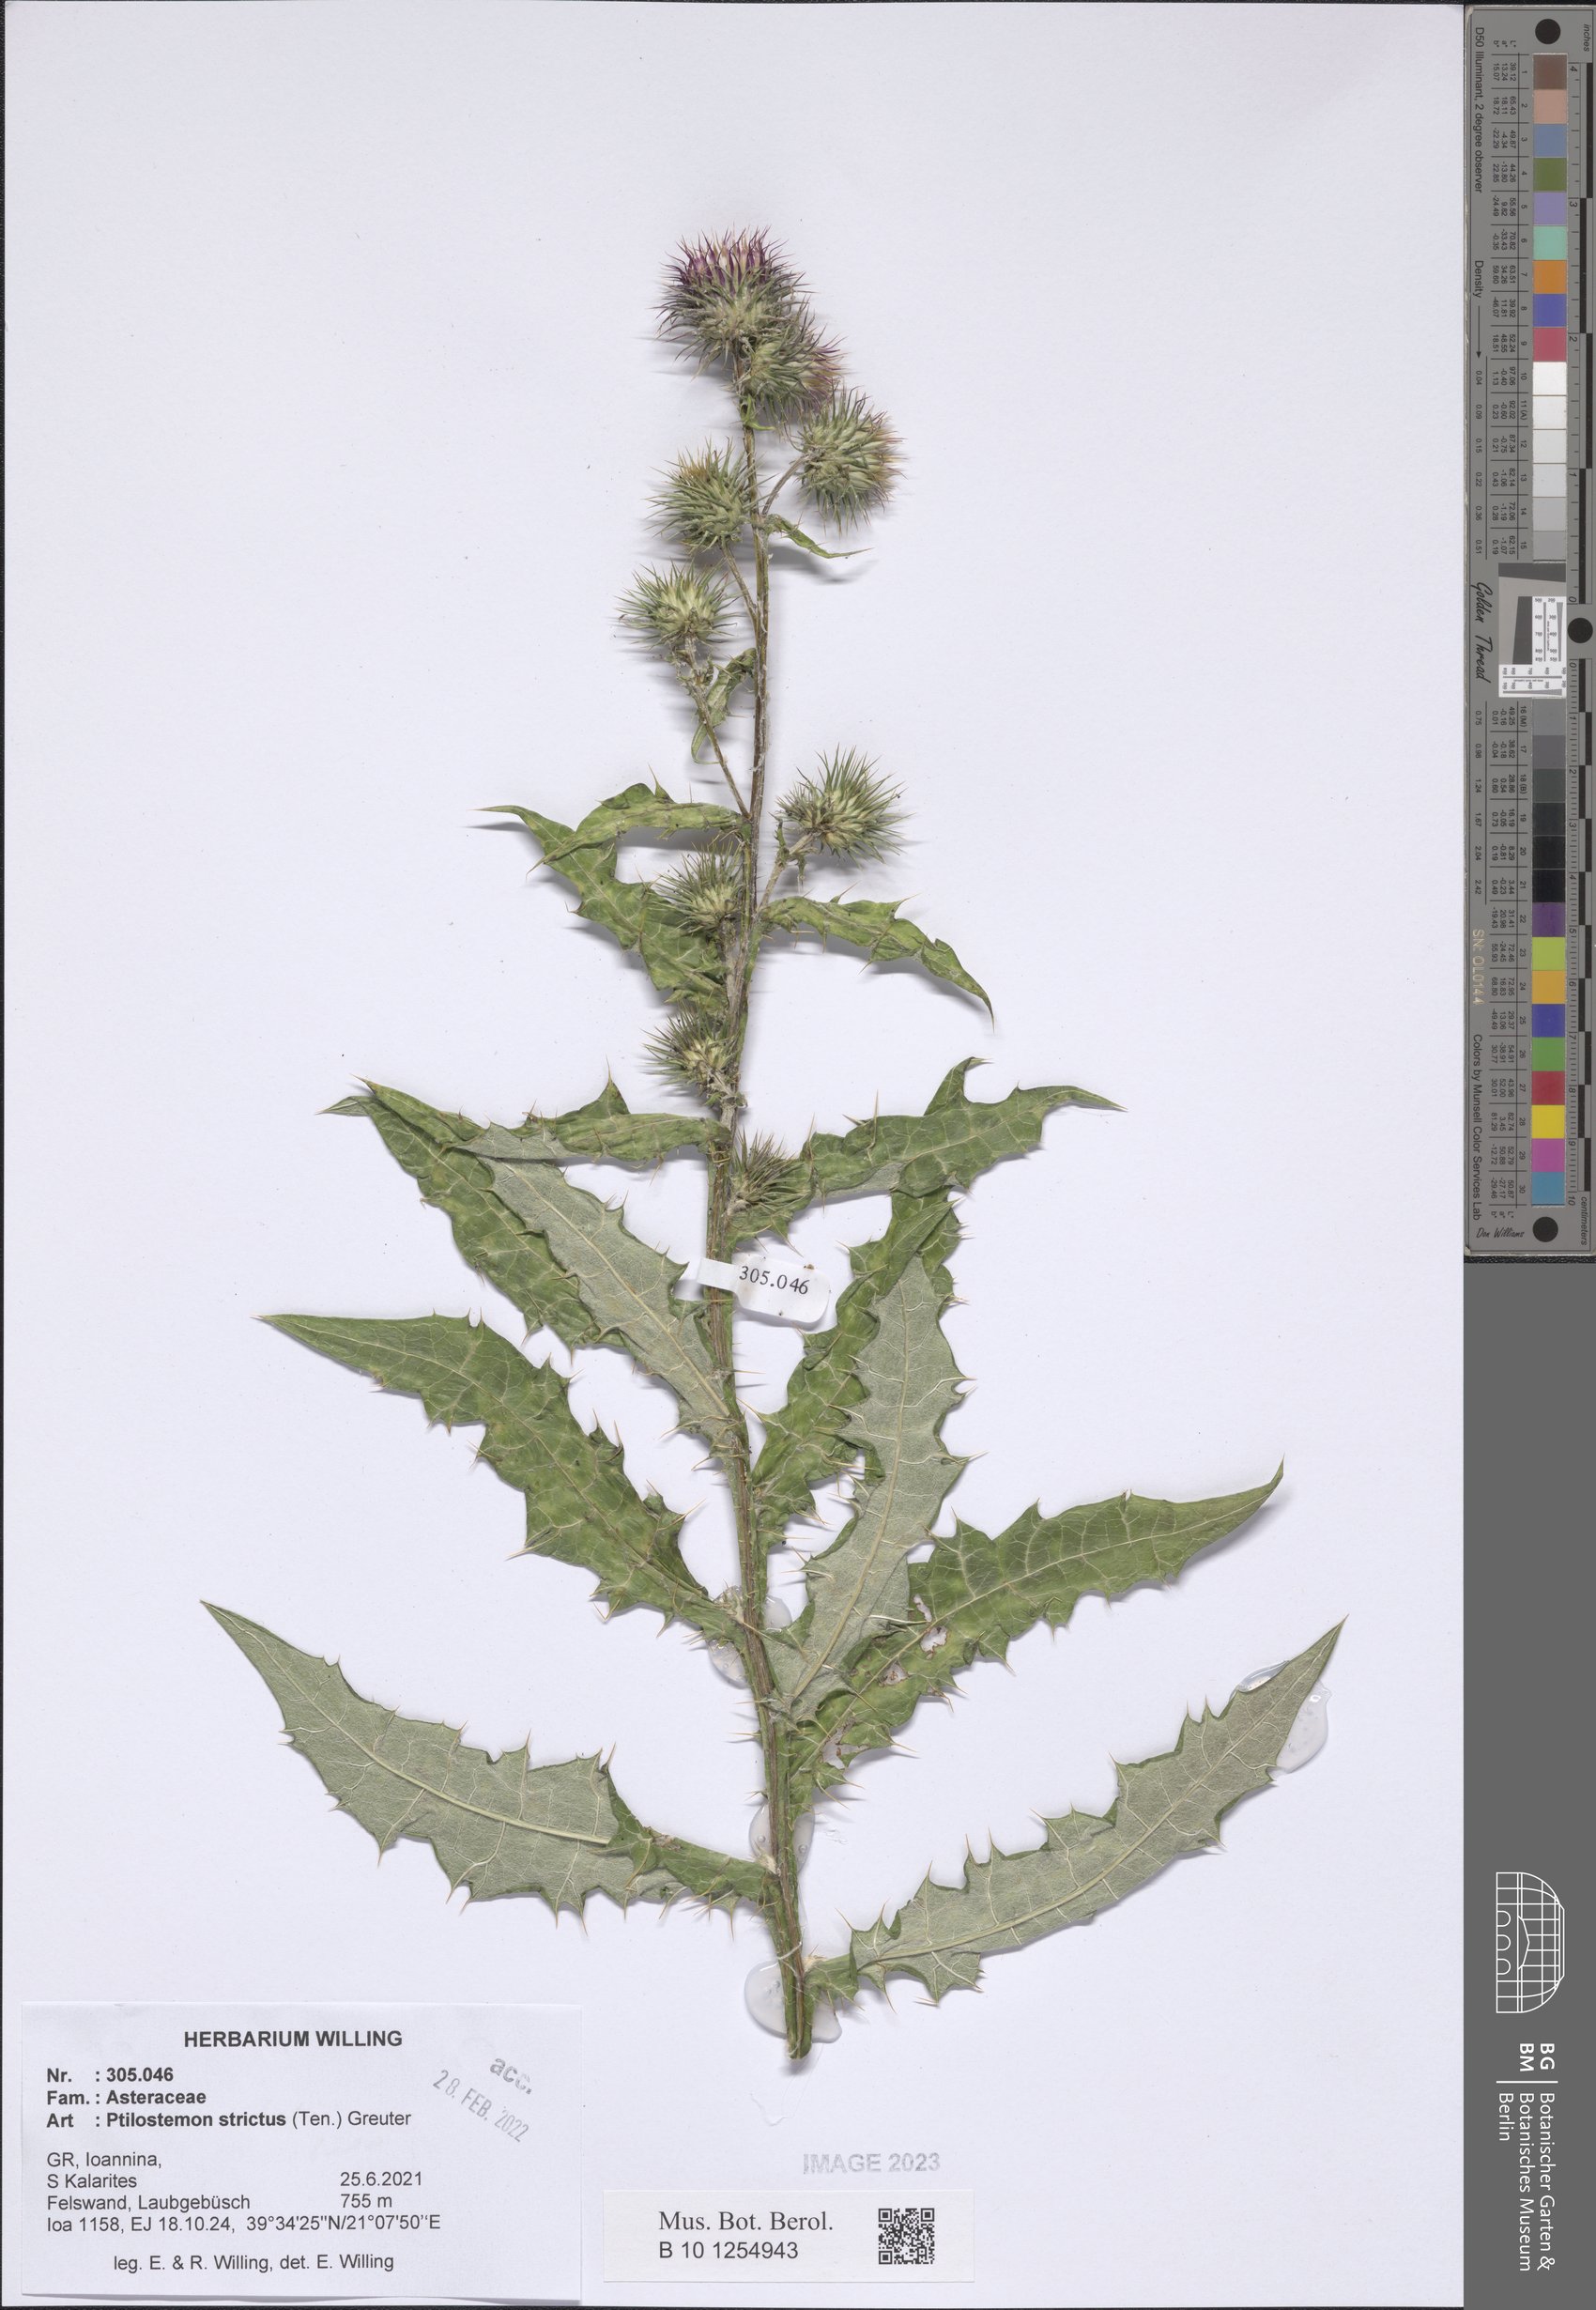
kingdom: Plantae
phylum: Tracheophyta
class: Magnoliopsida
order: Asterales
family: Asteraceae
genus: Ptilostemon
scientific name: Ptilostemon strictus
